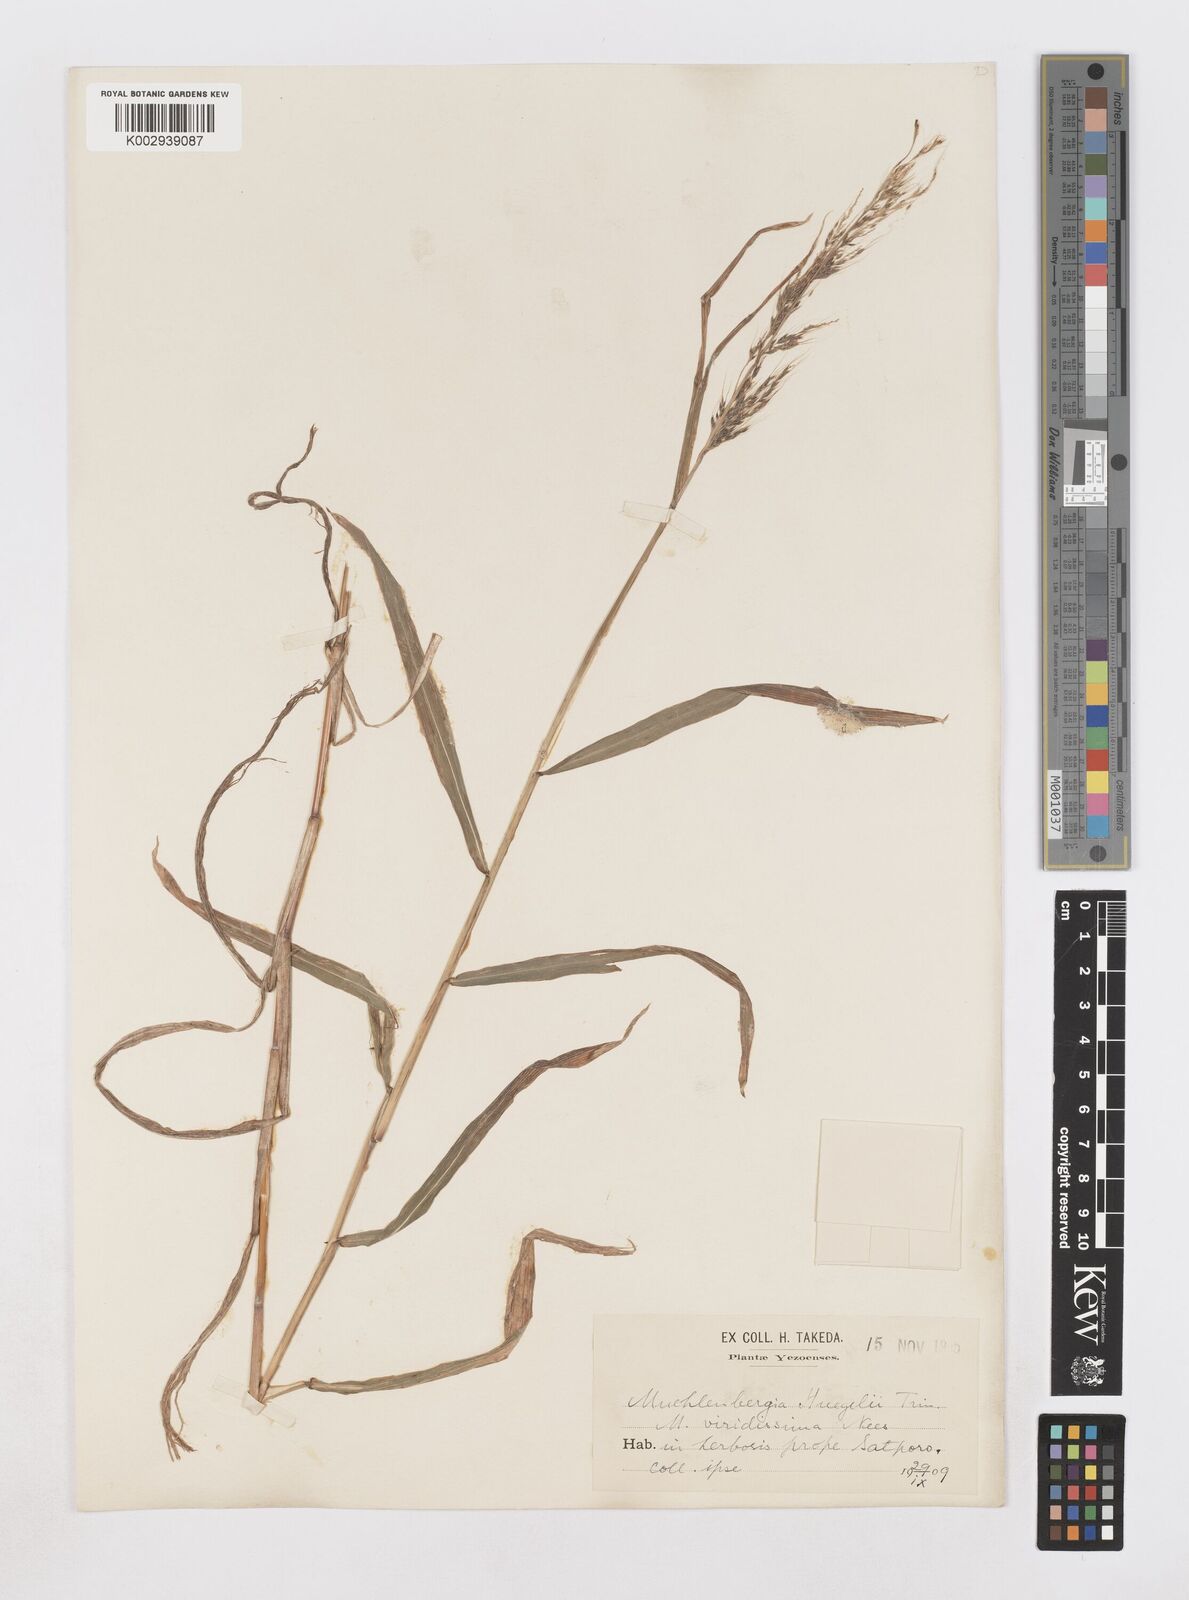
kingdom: Plantae
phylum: Tracheophyta
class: Liliopsida
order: Poales
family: Poaceae
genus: Muhlenbergia
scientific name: Muhlenbergia huegelii
